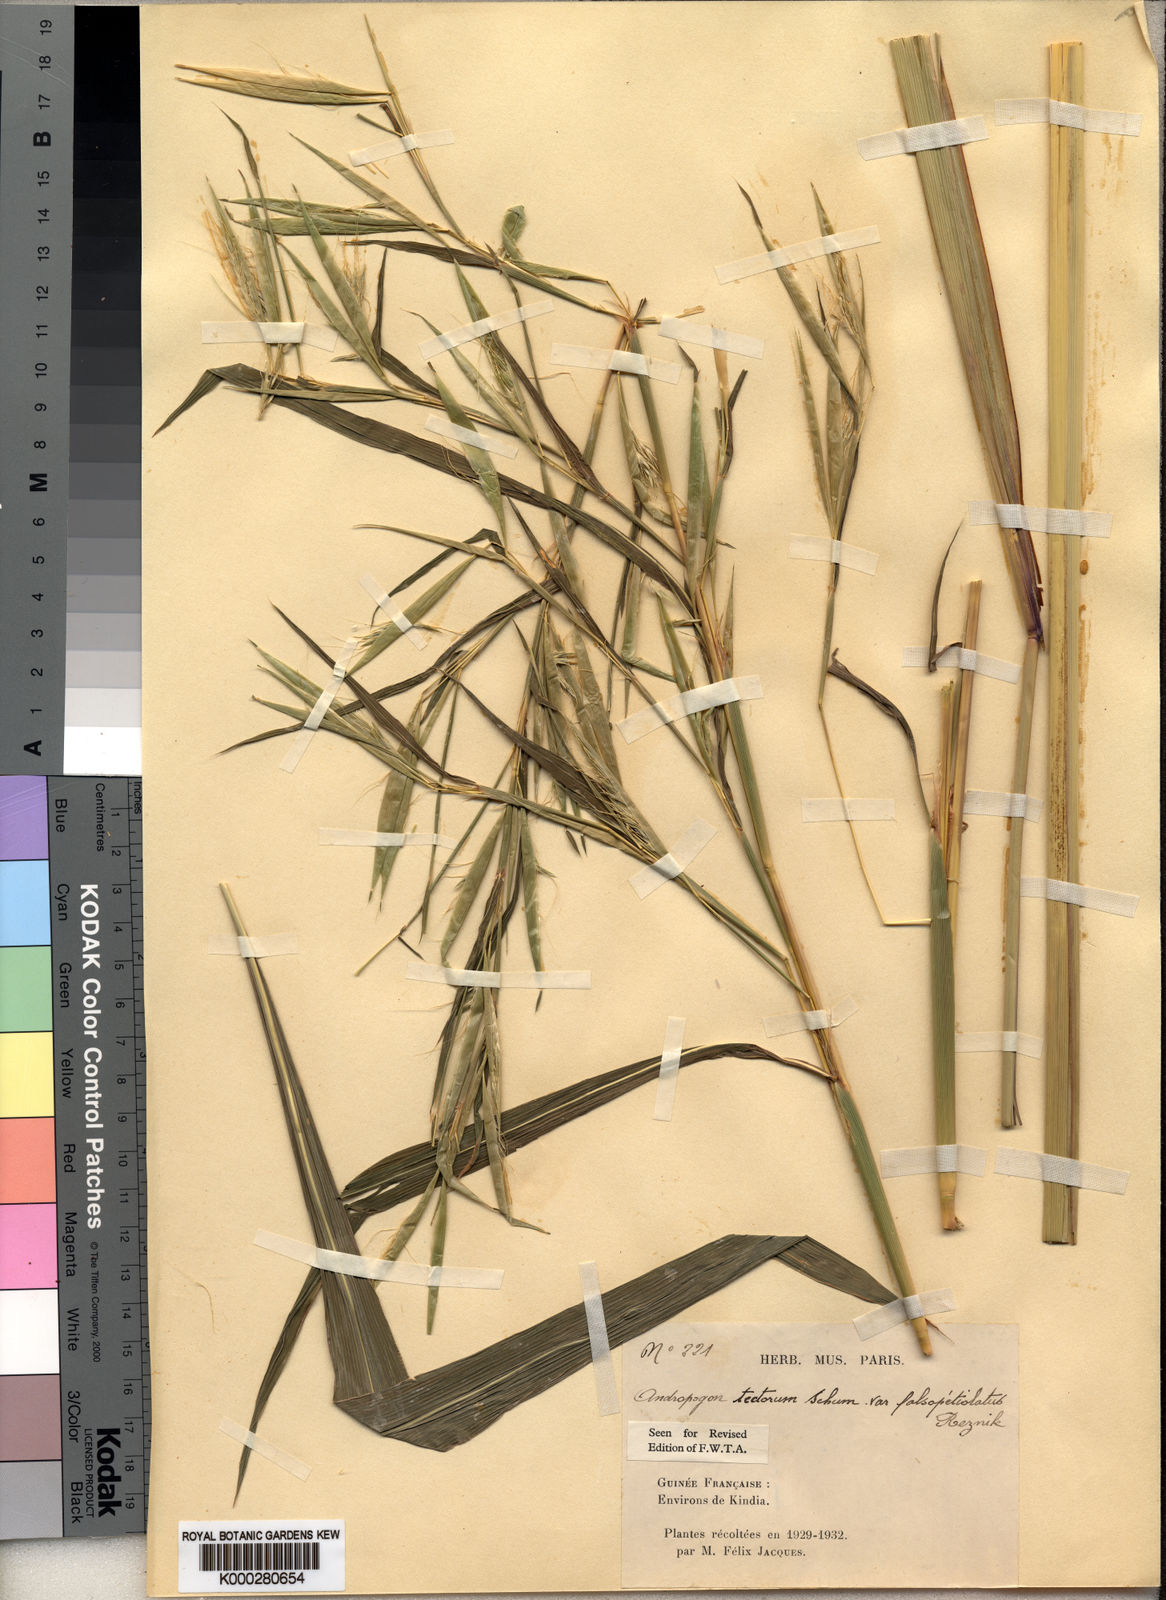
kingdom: Plantae
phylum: Tracheophyta
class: Liliopsida
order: Poales
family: Poaceae
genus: Andropogon
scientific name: Andropogon tectorum
